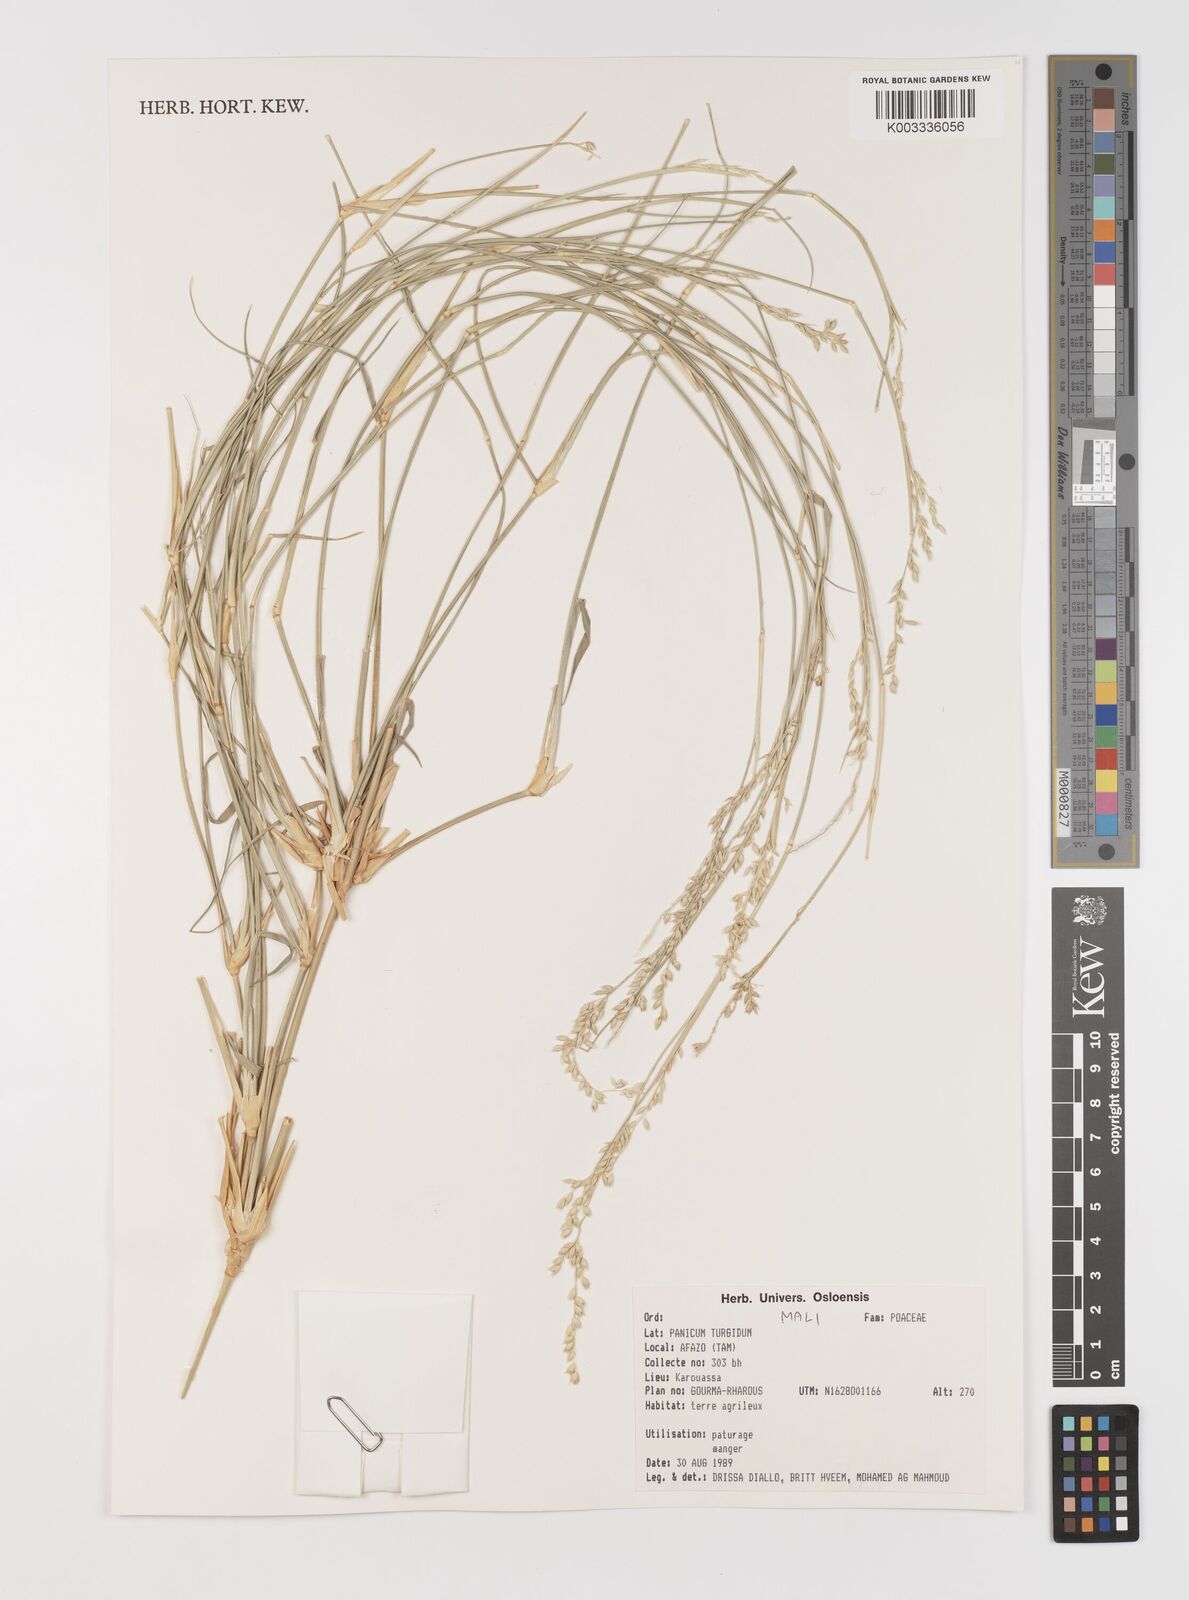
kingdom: Plantae
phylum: Tracheophyta
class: Liliopsida
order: Poales
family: Poaceae
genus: Panicum
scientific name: Panicum turgidum
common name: Desert grass
